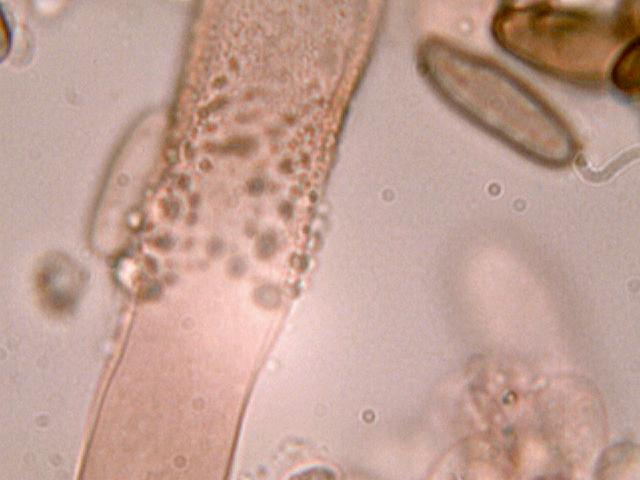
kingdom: Fungi
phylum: Basidiomycota
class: Agaricomycetes
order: Boletales
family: Gomphidiaceae
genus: Gomphidius
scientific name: Gomphidius maculatus
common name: rødmende slimslør
